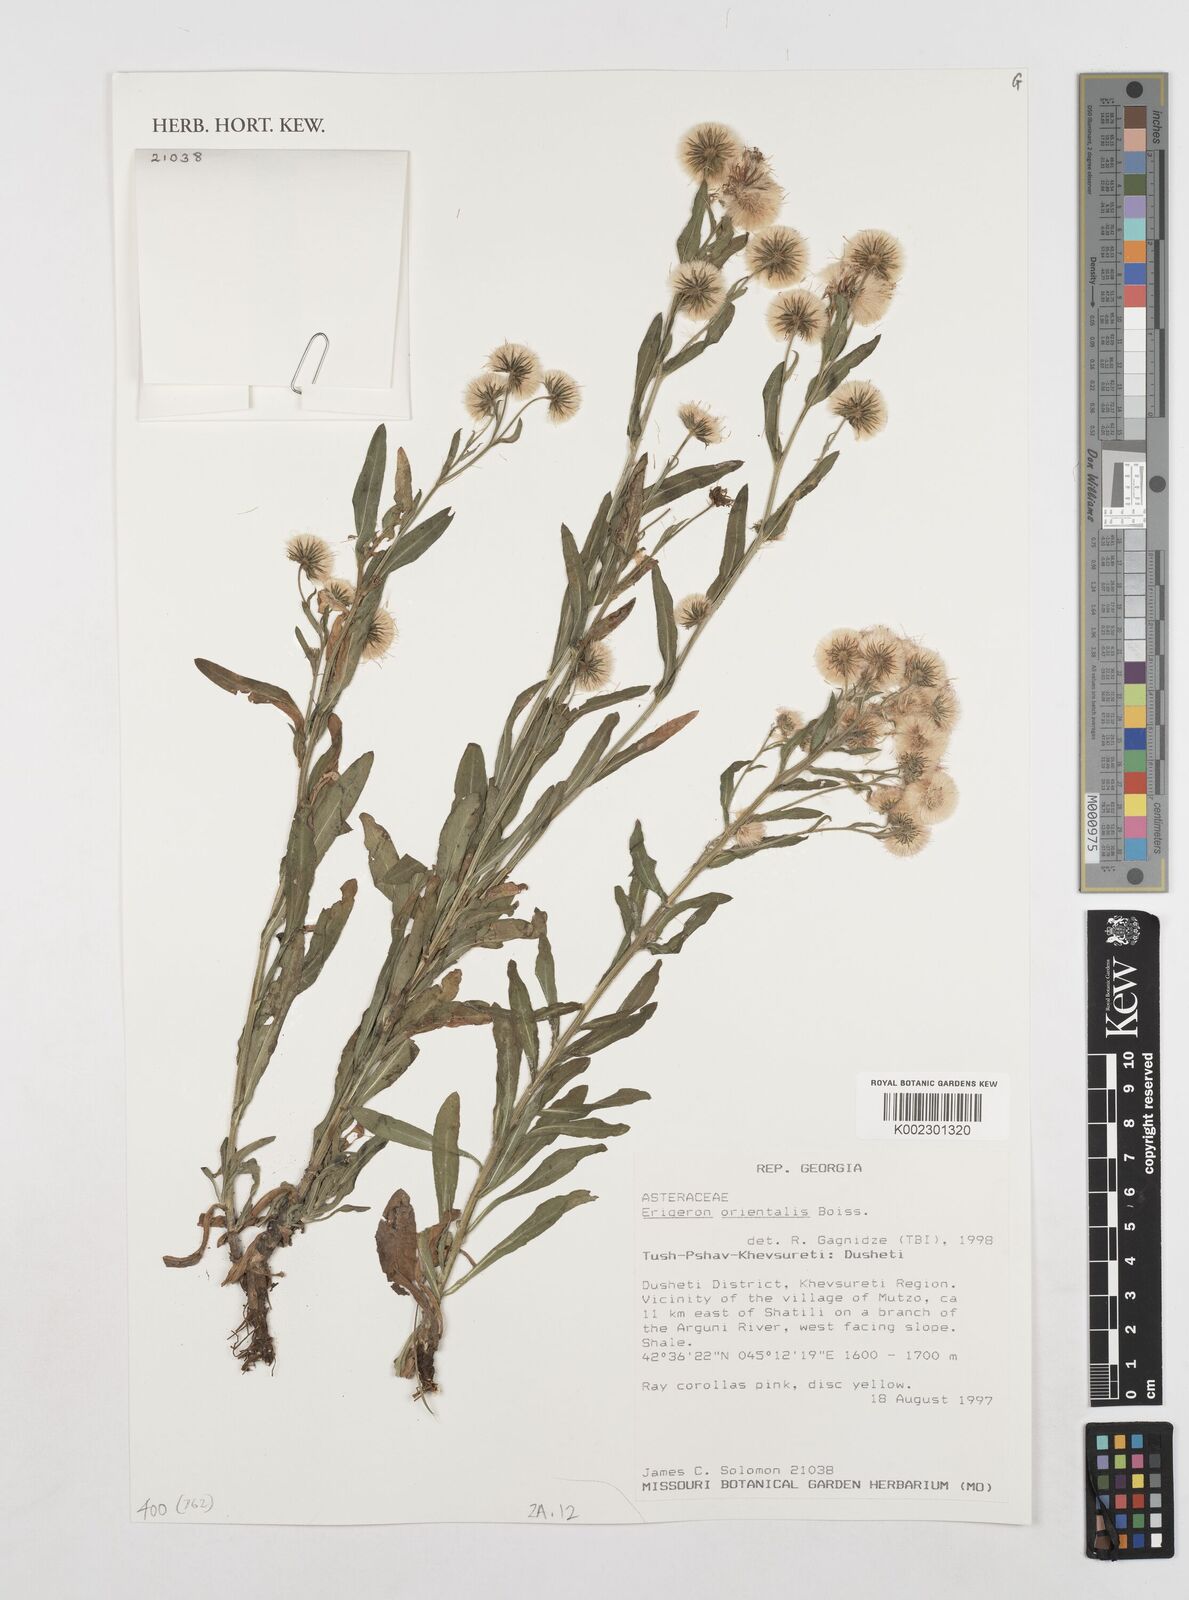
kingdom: Plantae
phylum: Tracheophyta
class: Magnoliopsida
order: Asterales
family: Asteraceae
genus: Erigeron
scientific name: Erigeron acris
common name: Blue fleabane
